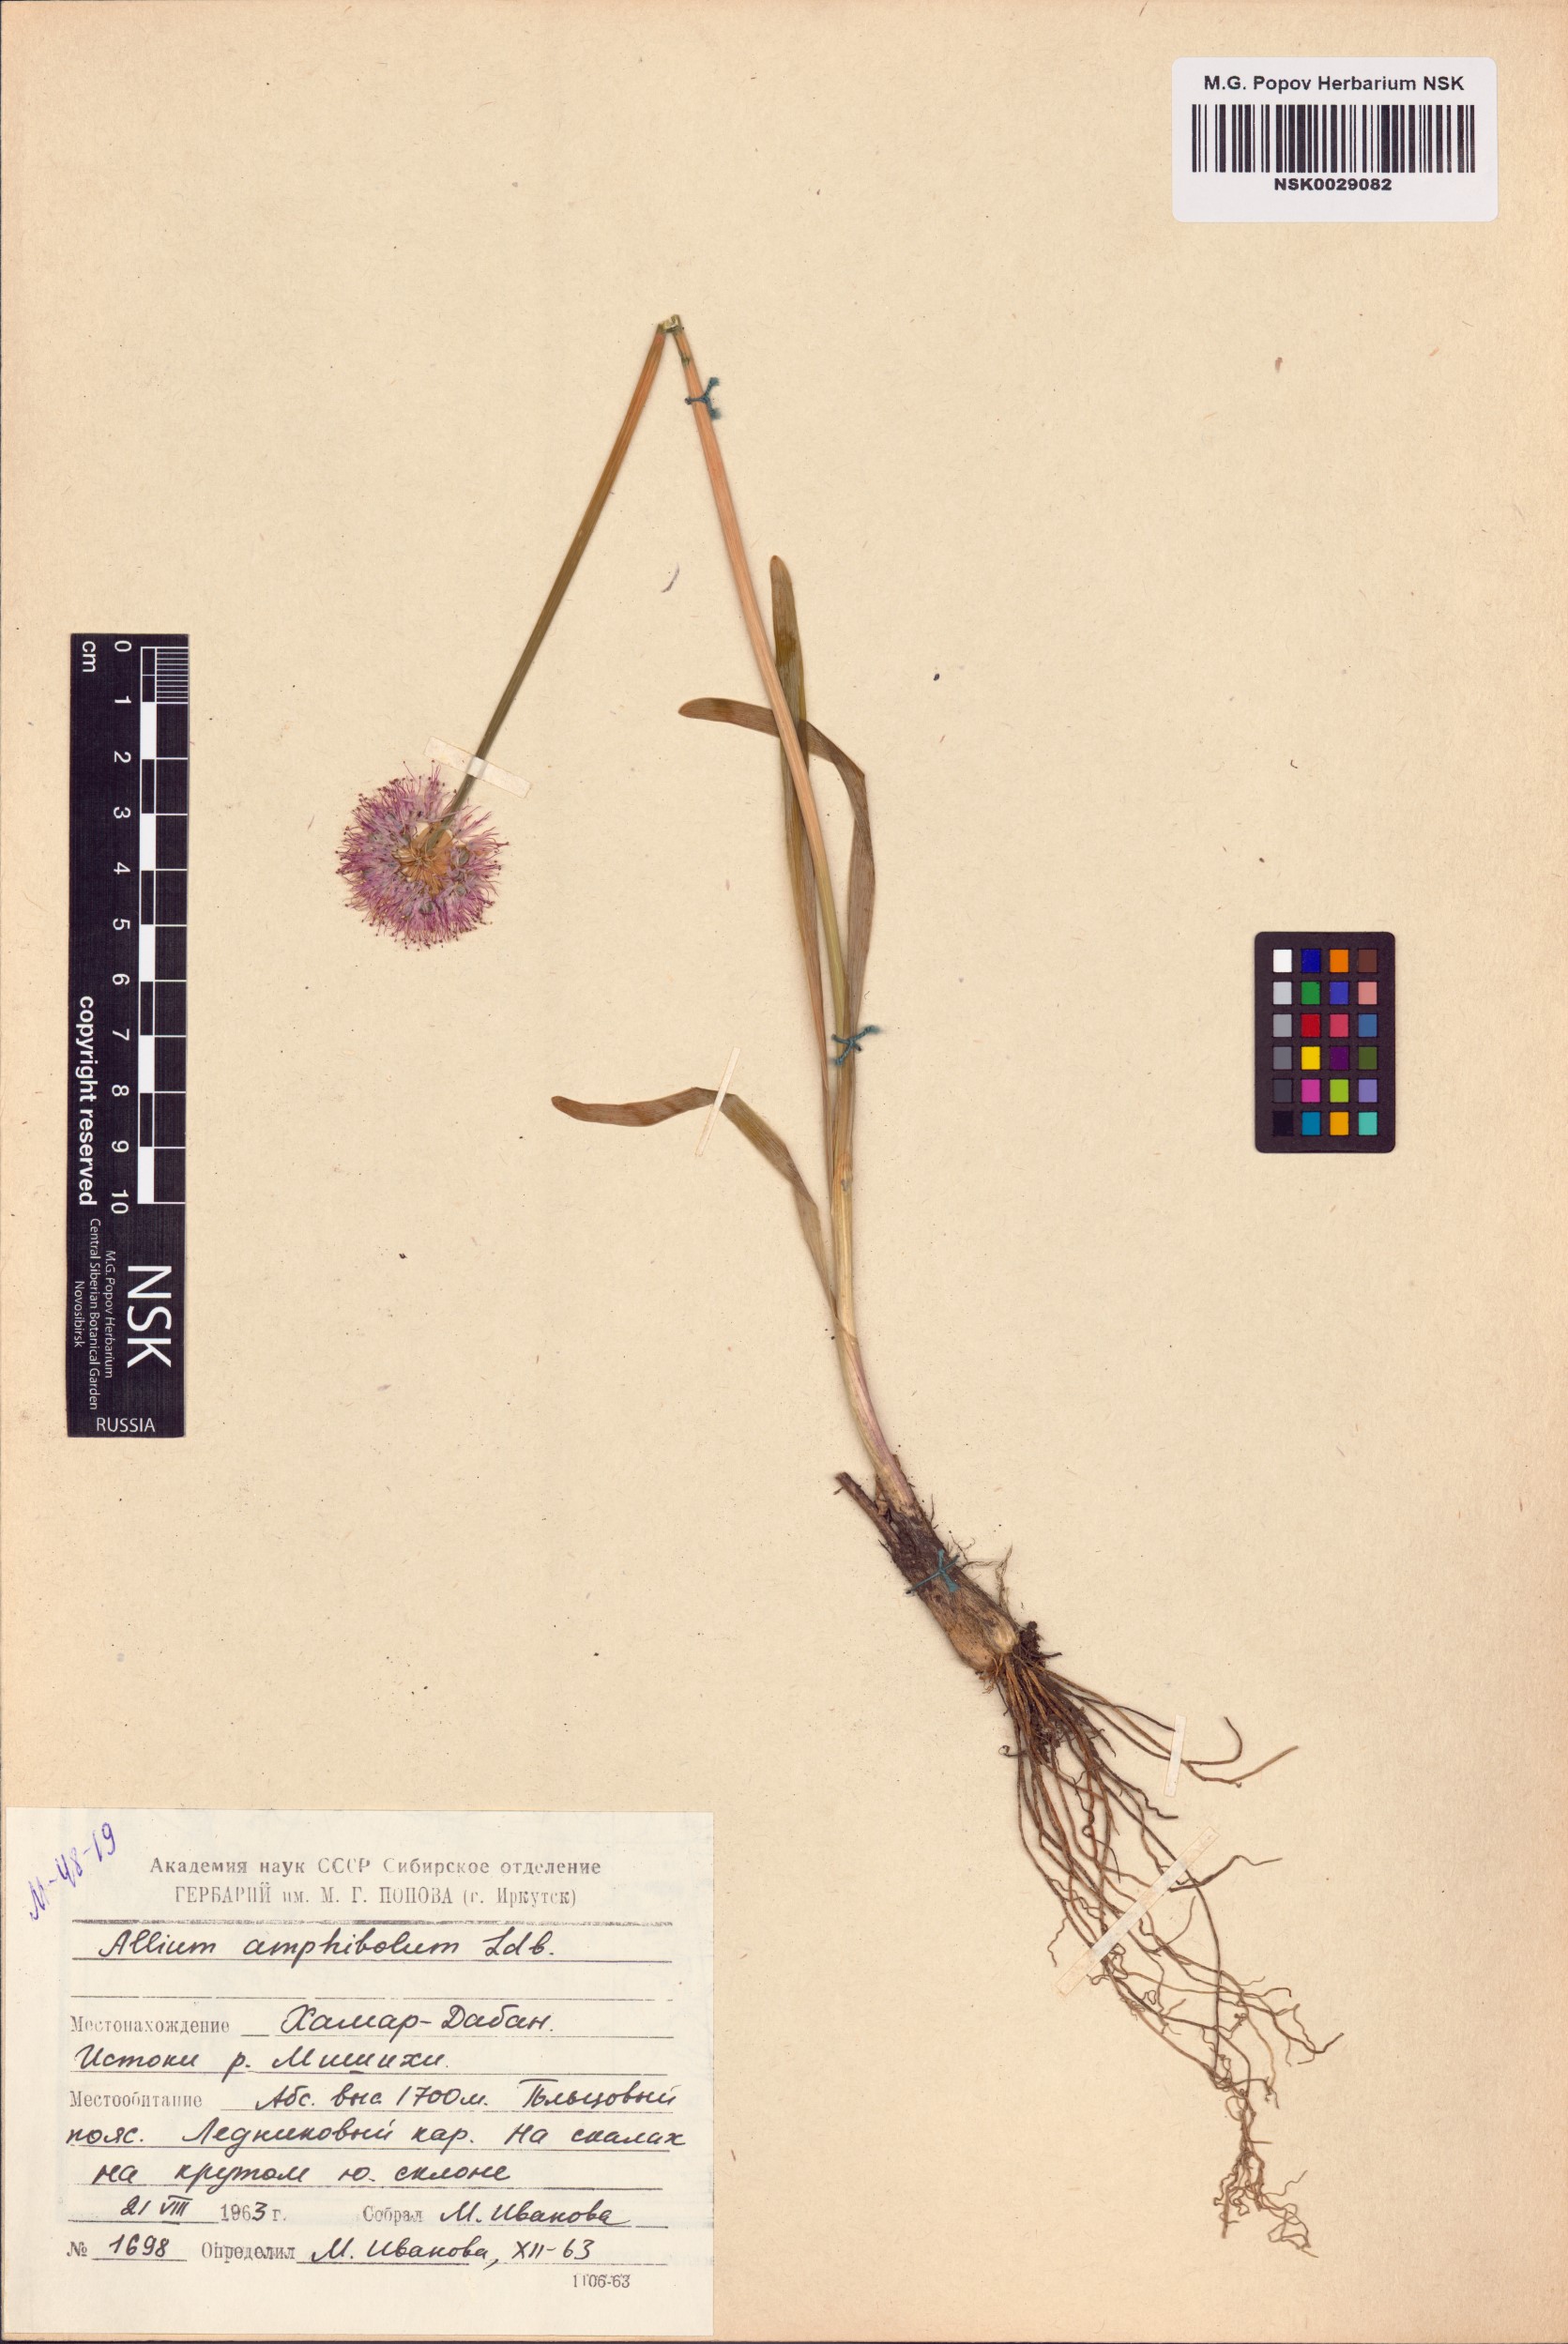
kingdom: Plantae
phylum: Tracheophyta
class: Liliopsida
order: Asparagales
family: Amaryllidaceae
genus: Allium
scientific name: Allium amphibolum
